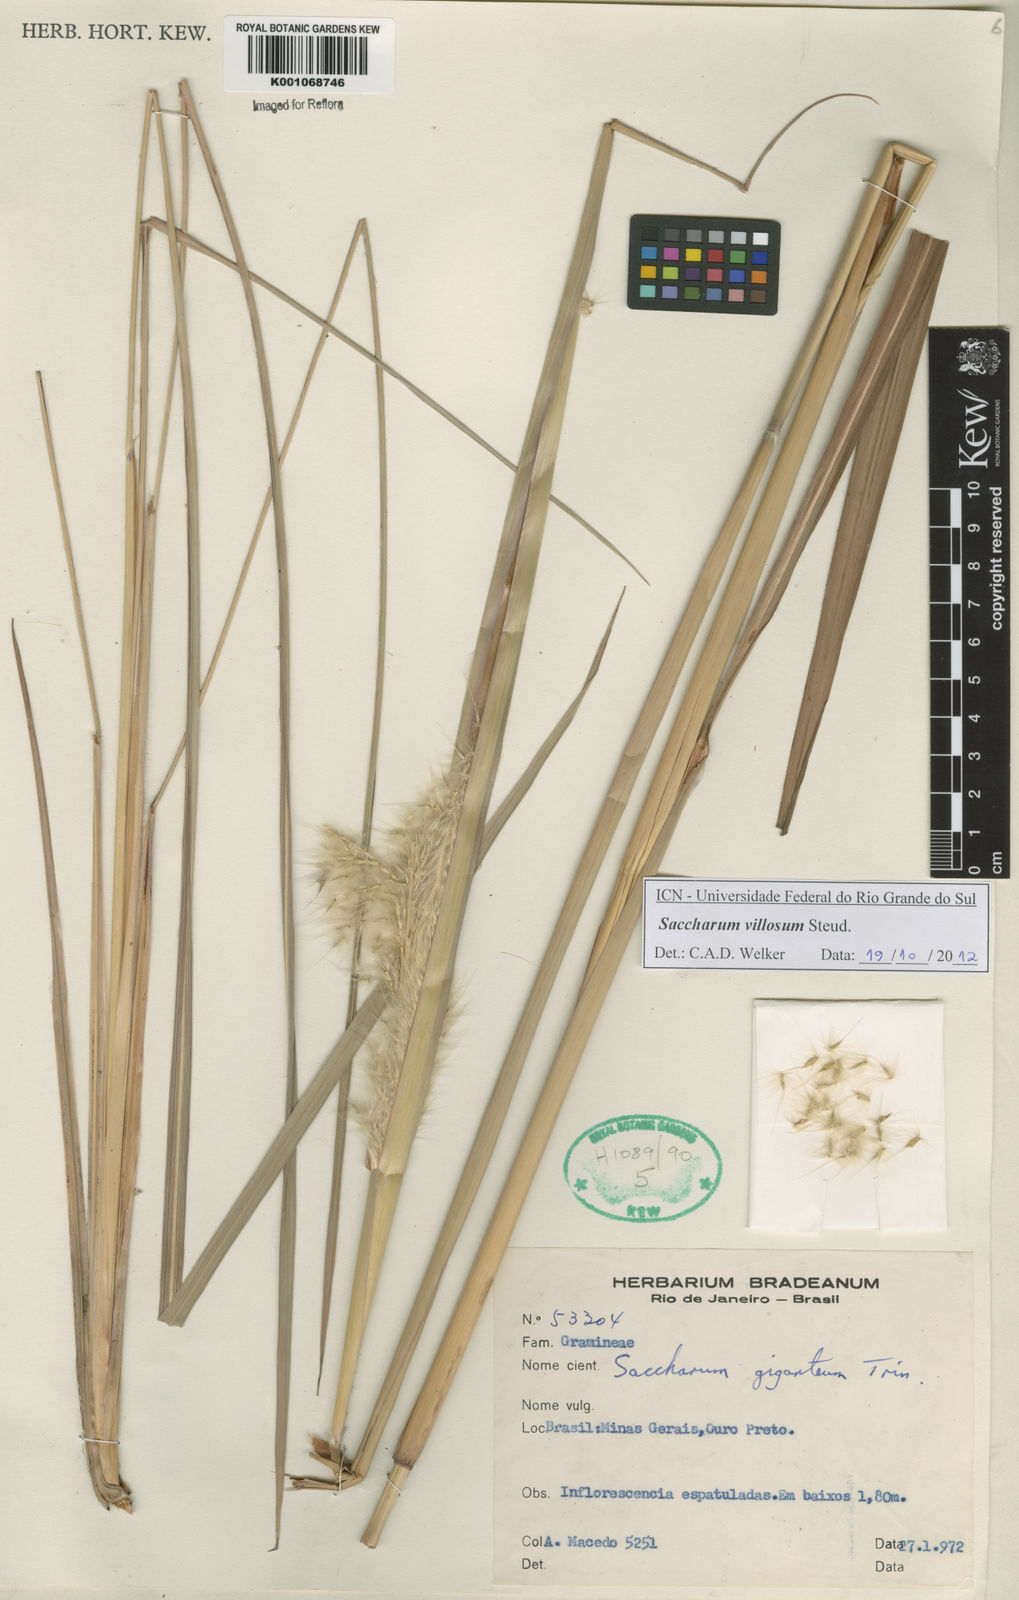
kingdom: Plantae
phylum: Tracheophyta
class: Liliopsida
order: Poales
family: Poaceae
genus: Erianthus
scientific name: Erianthus trinii
